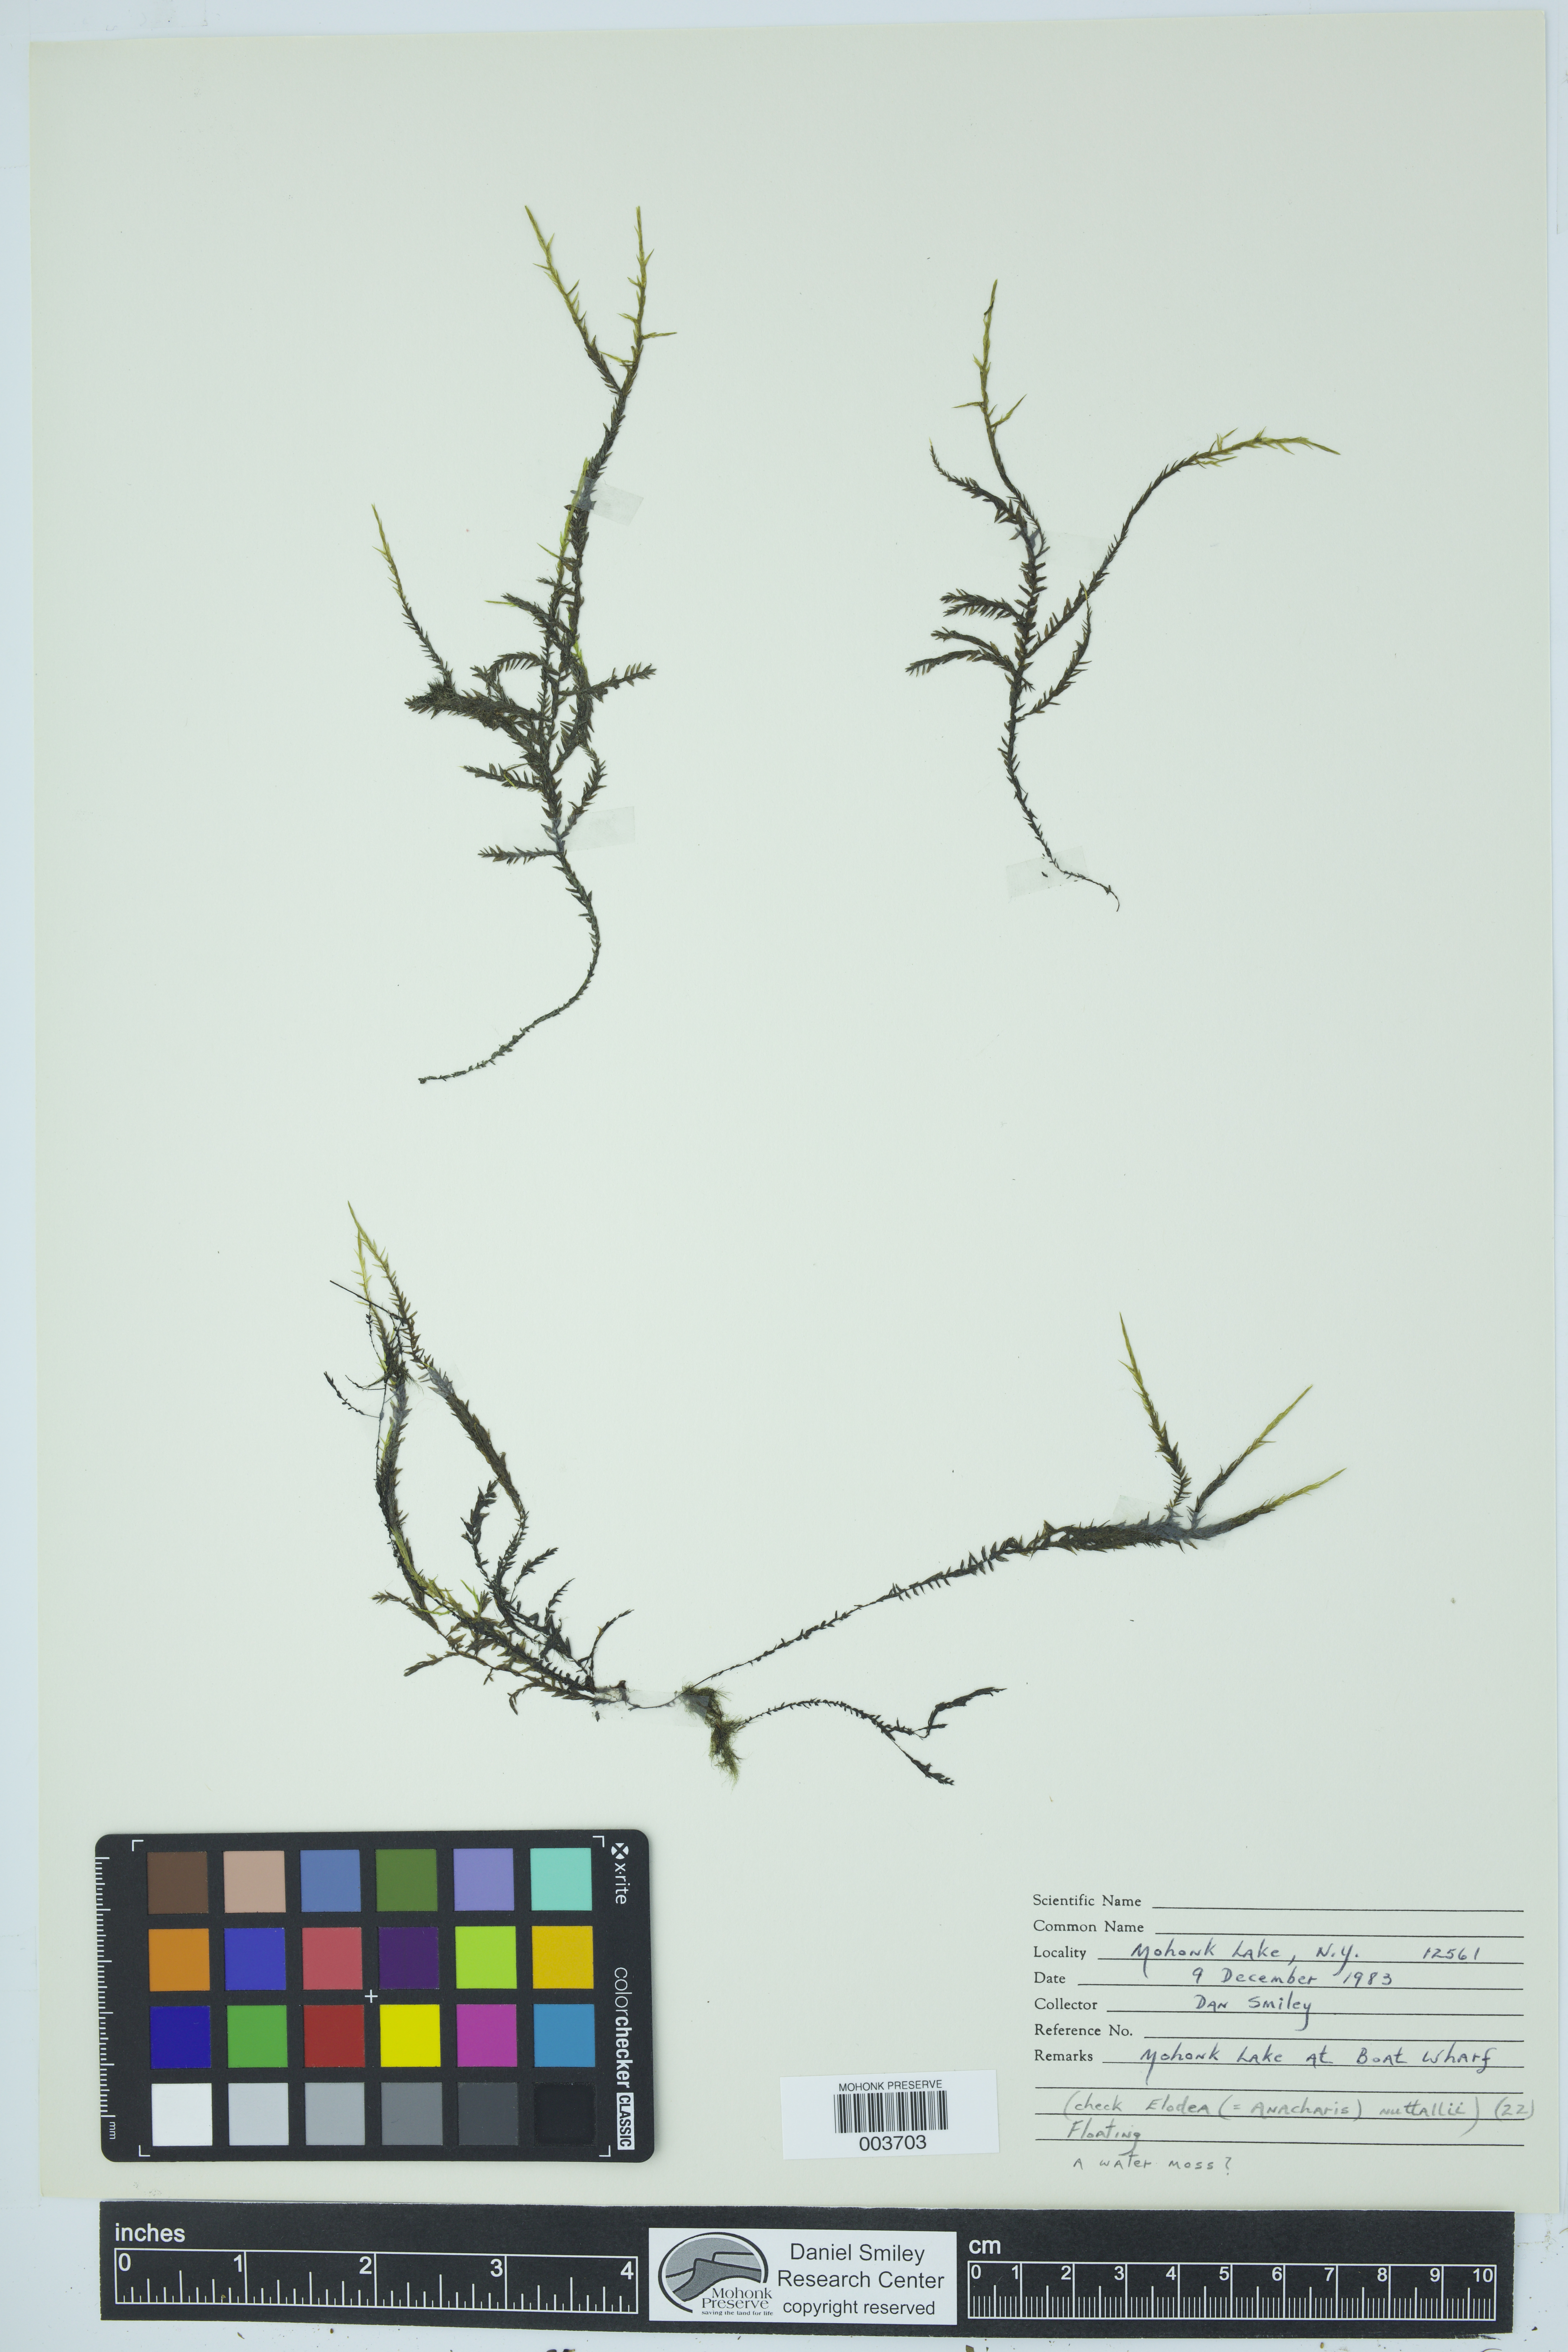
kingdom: Plantae
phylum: Tracheophyta
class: Liliopsida
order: Alismatales
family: Hydrocharitaceae
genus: Elodea
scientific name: Elodea
